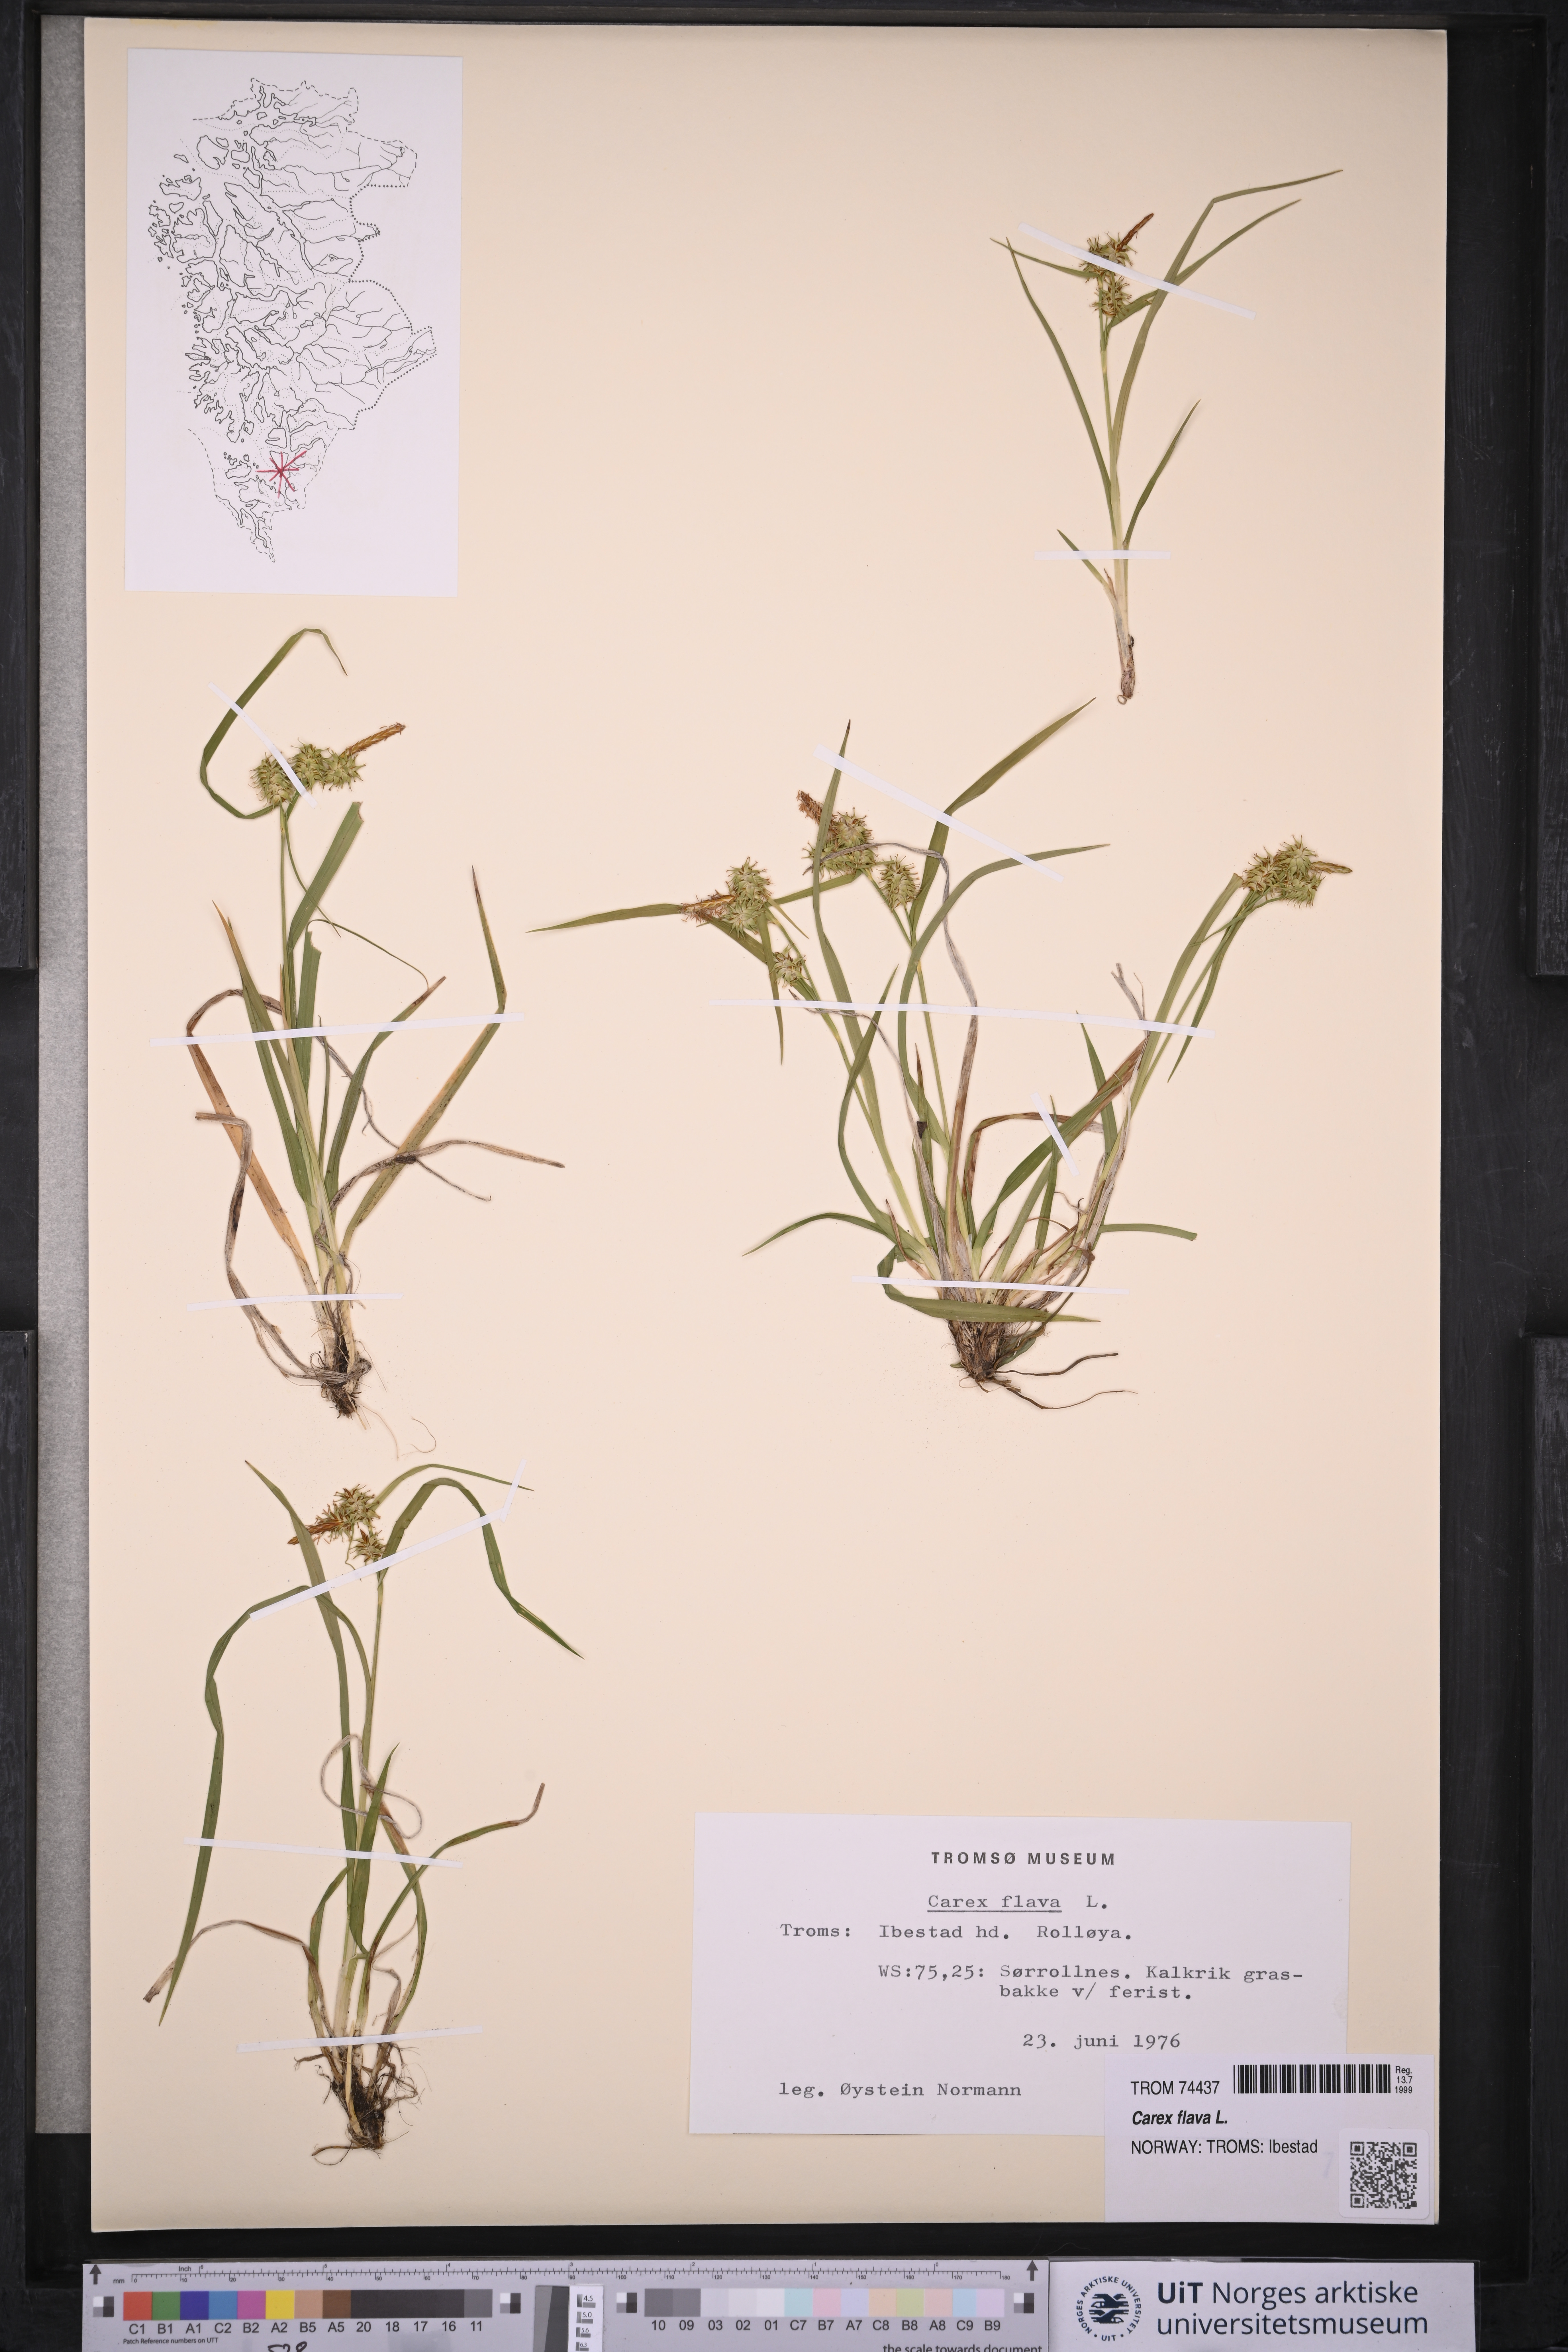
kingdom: Plantae
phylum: Tracheophyta
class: Liliopsida
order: Poales
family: Cyperaceae
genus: Carex
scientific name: Carex flava
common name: Large yellow-sedge
